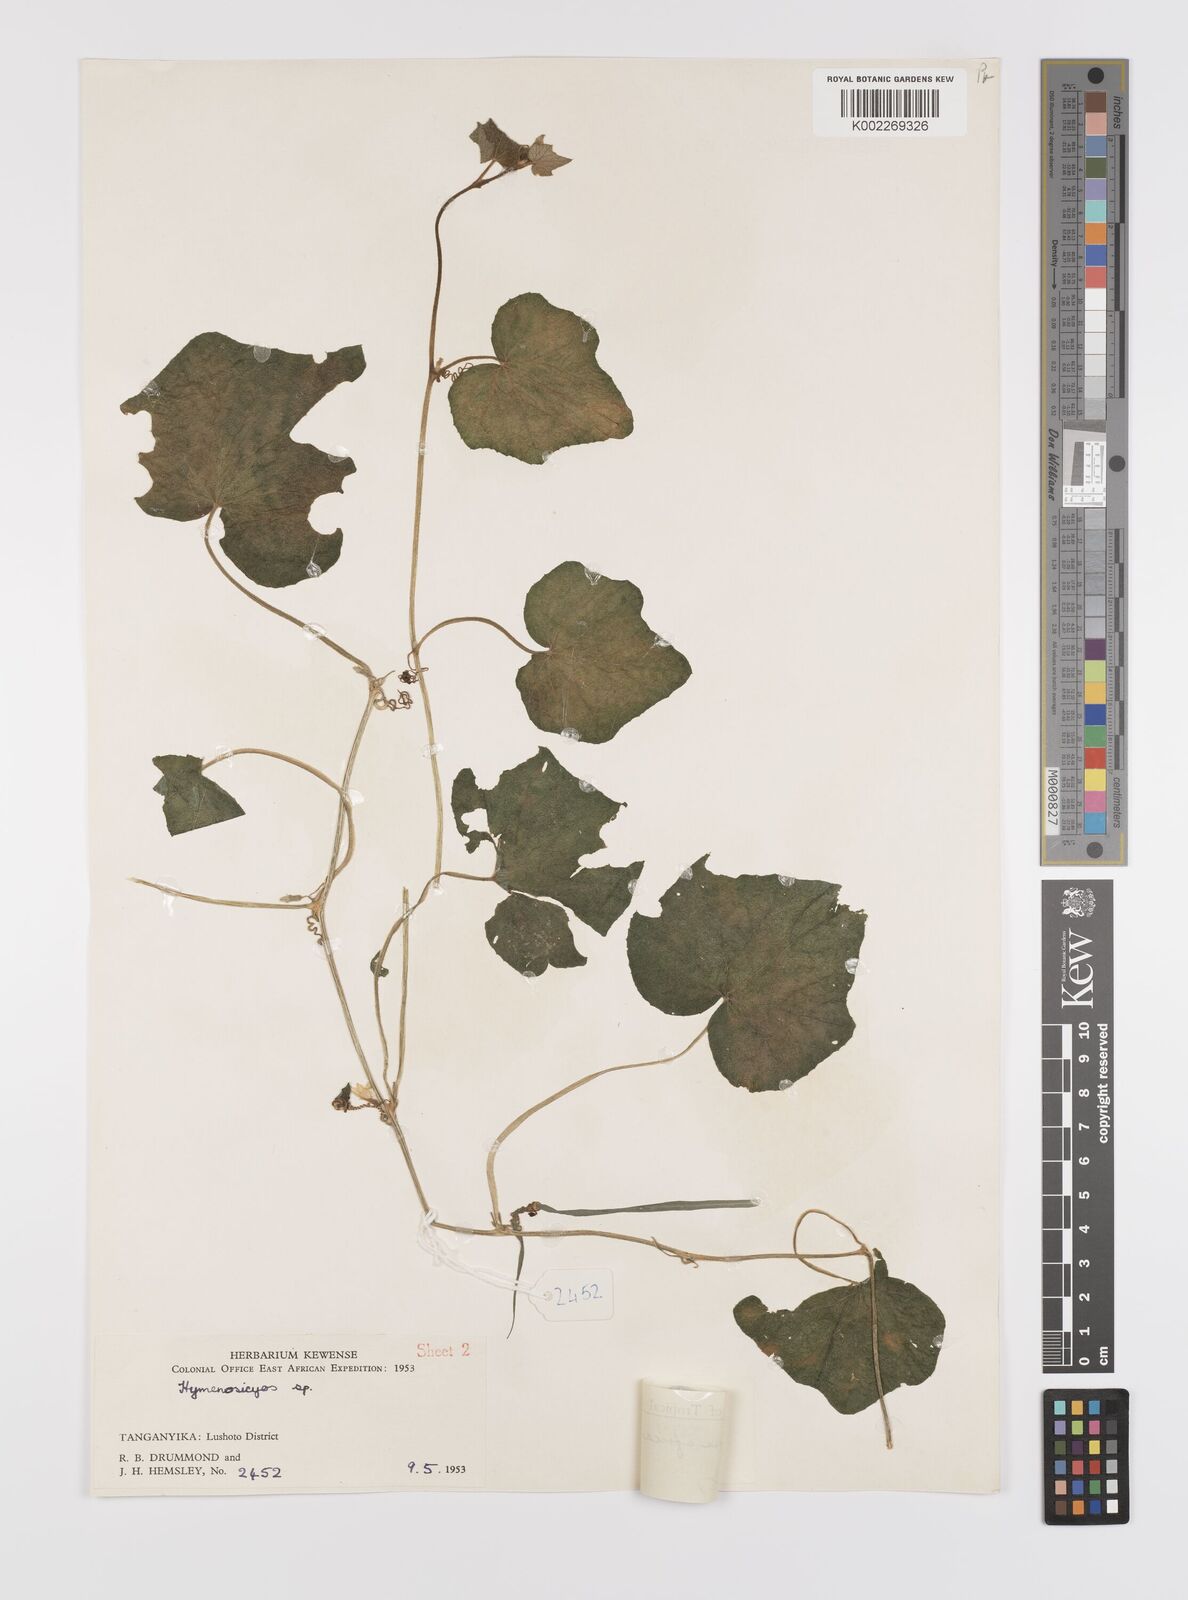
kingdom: Plantae
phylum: Tracheophyta
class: Magnoliopsida
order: Cucurbitales
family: Cucurbitaceae
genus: Cucumis
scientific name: Cucumis oreosyce
